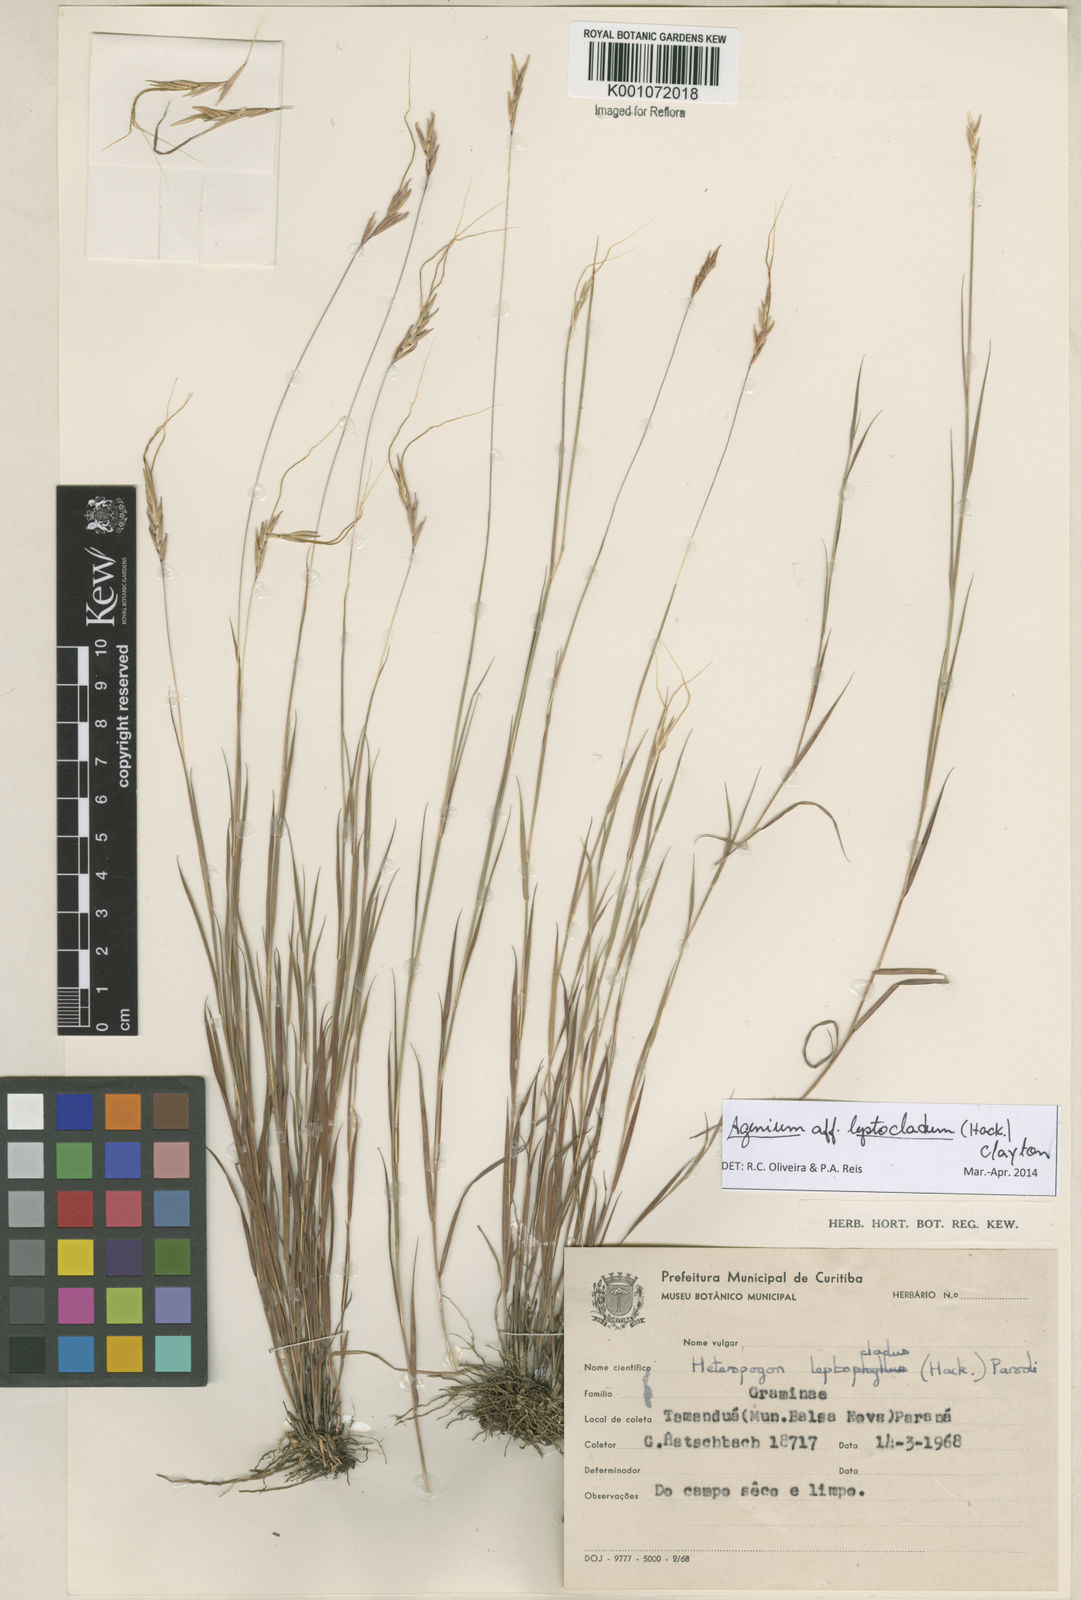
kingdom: Plantae
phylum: Tracheophyta
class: Liliopsida
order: Poales
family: Poaceae
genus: Agenium
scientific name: Agenium leptocladum
